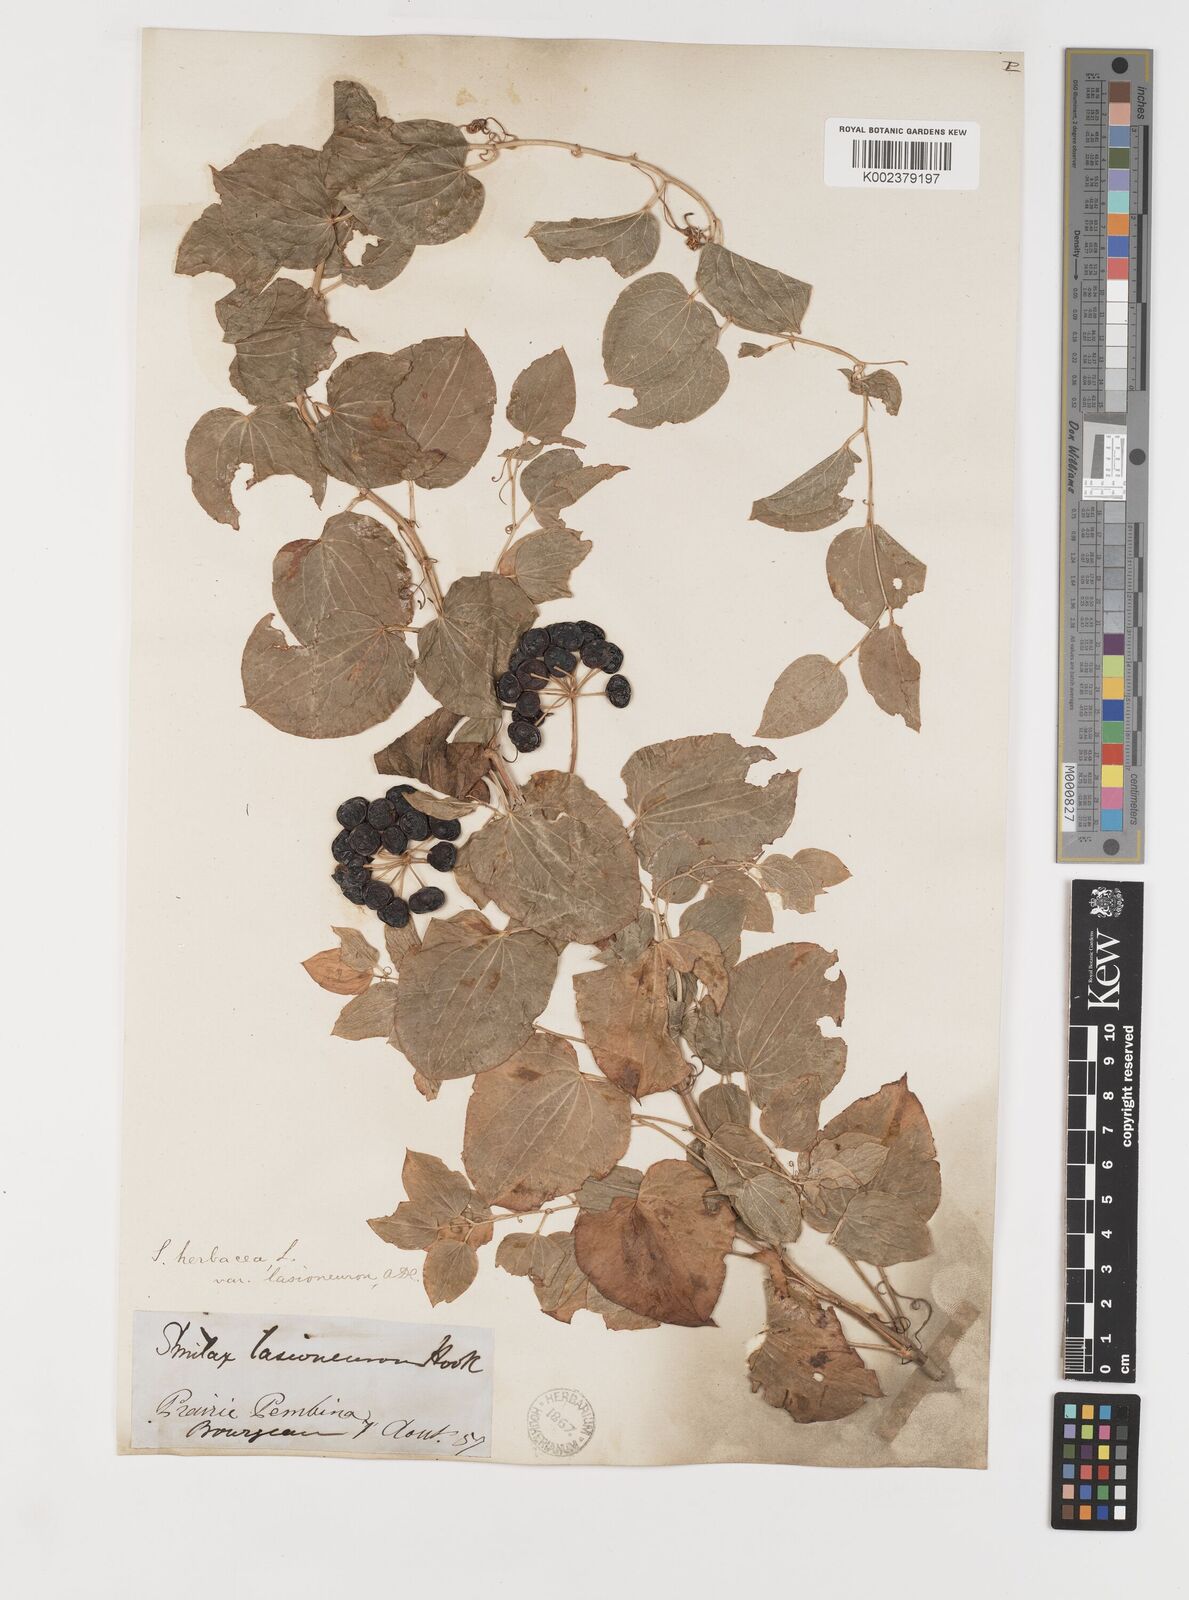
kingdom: Plantae
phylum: Tracheophyta
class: Liliopsida
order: Liliales
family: Smilacaceae
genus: Smilax
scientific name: Smilax lasioneura
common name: Blue ridge carrionflower
